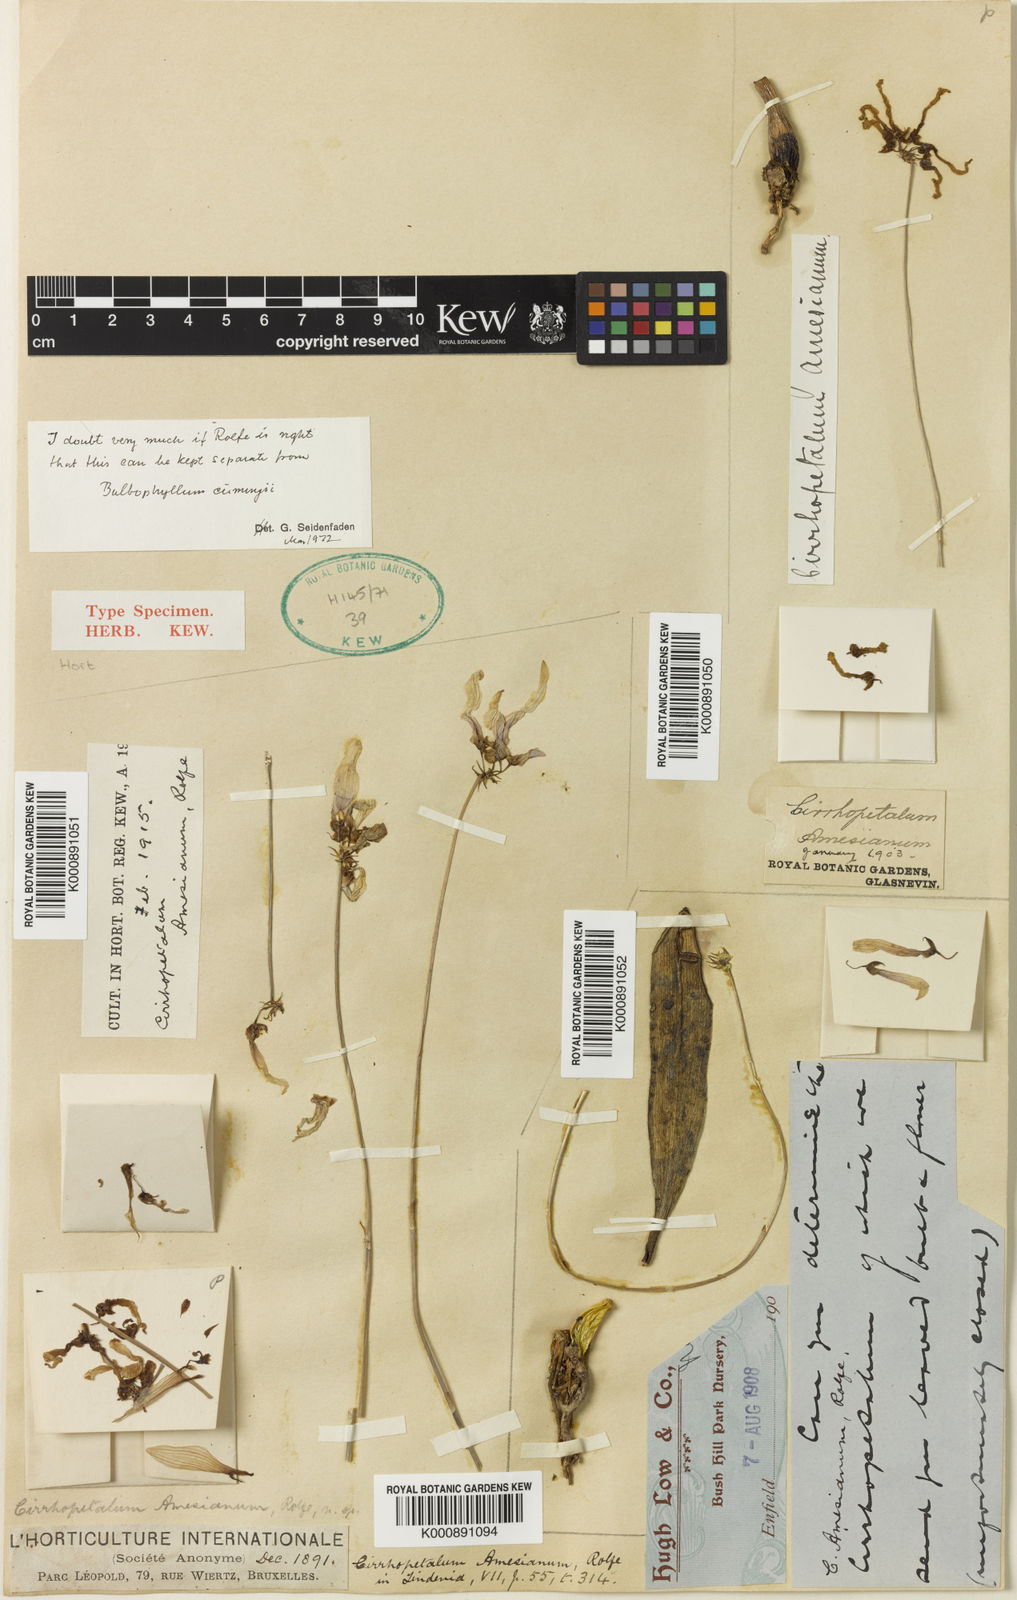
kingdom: Plantae
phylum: Tracheophyta
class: Liliopsida
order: Asparagales
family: Orchidaceae
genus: Bulbophyllum
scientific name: Bulbophyllum cumingii
